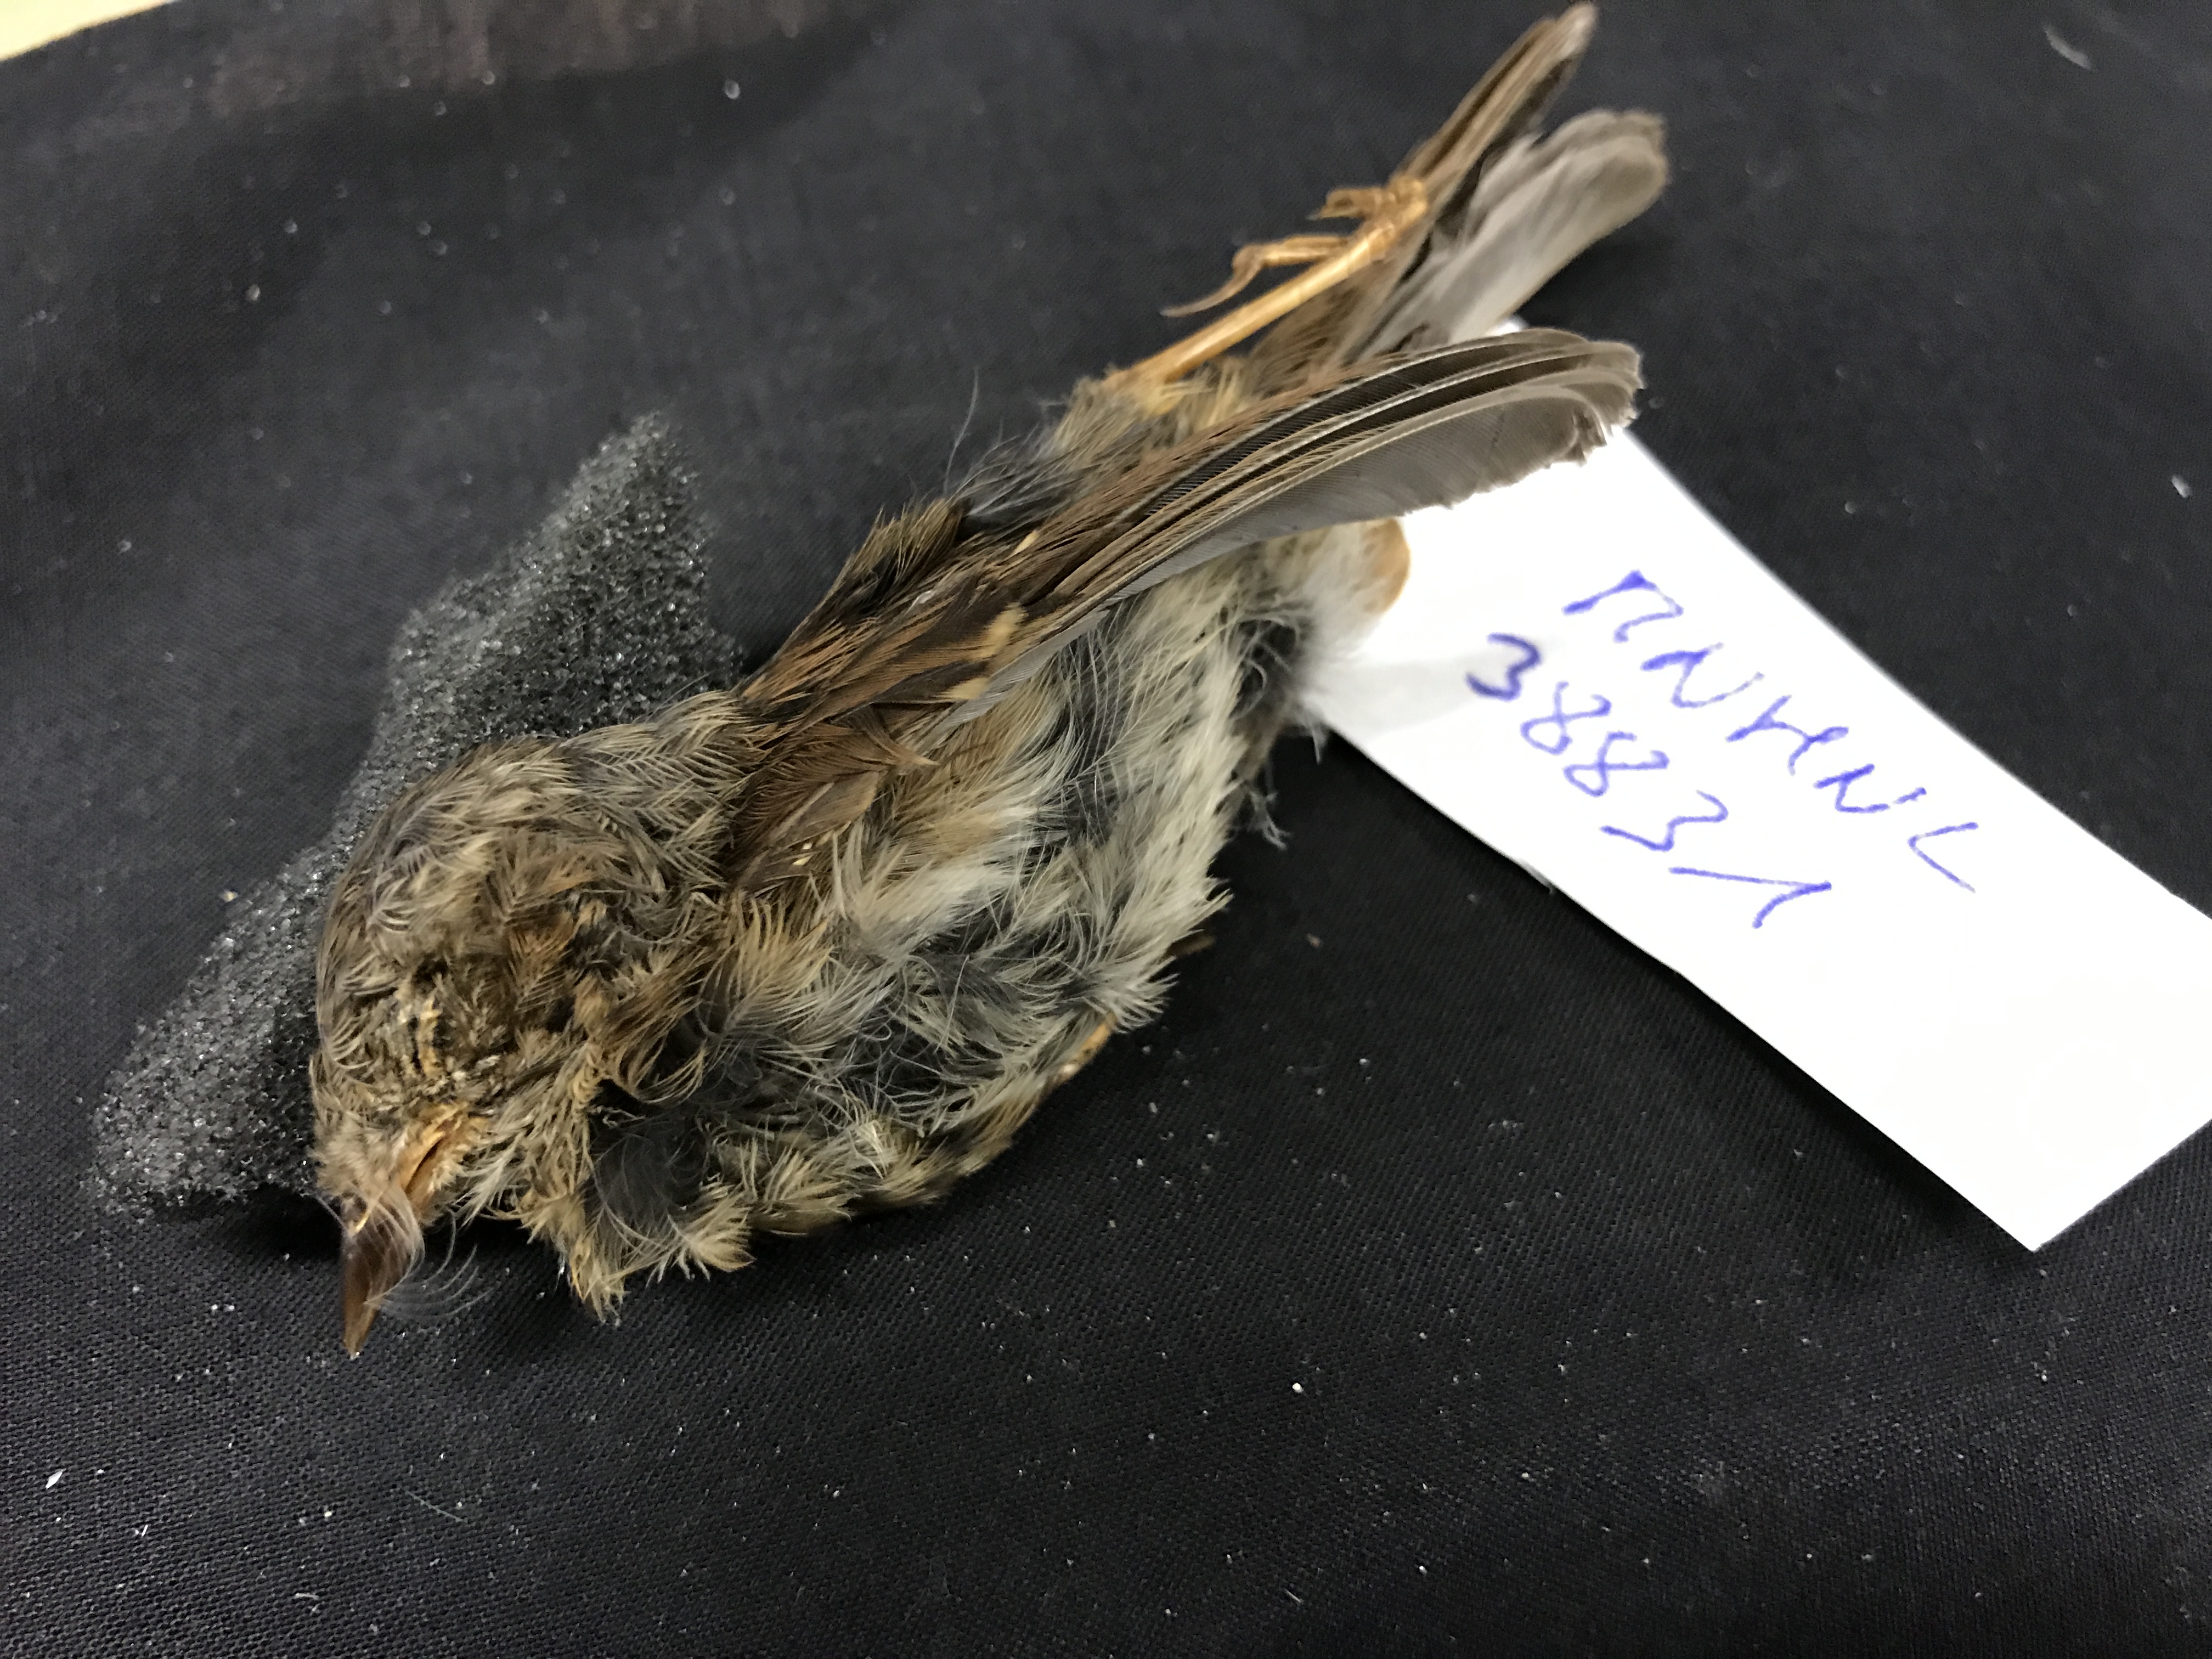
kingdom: Animalia
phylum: Chordata
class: Aves
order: Passeriformes
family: Prunellidae
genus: Prunella
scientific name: Prunella modularis
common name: Dunnock
